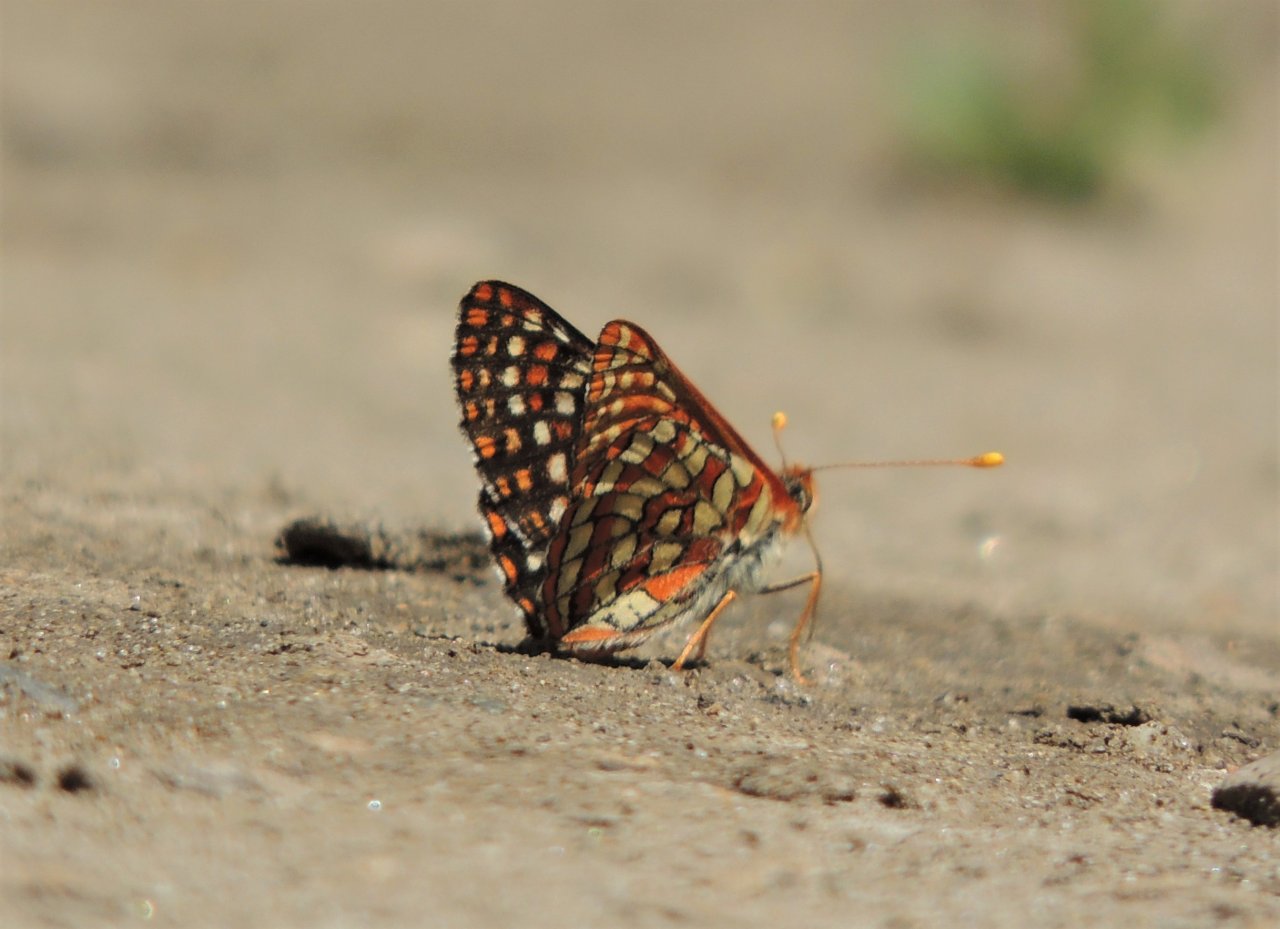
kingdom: Animalia
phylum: Arthropoda
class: Insecta
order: Lepidoptera
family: Nymphalidae
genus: Occidryas
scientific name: Occidryas anicia
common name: Anicia Checkerspot
